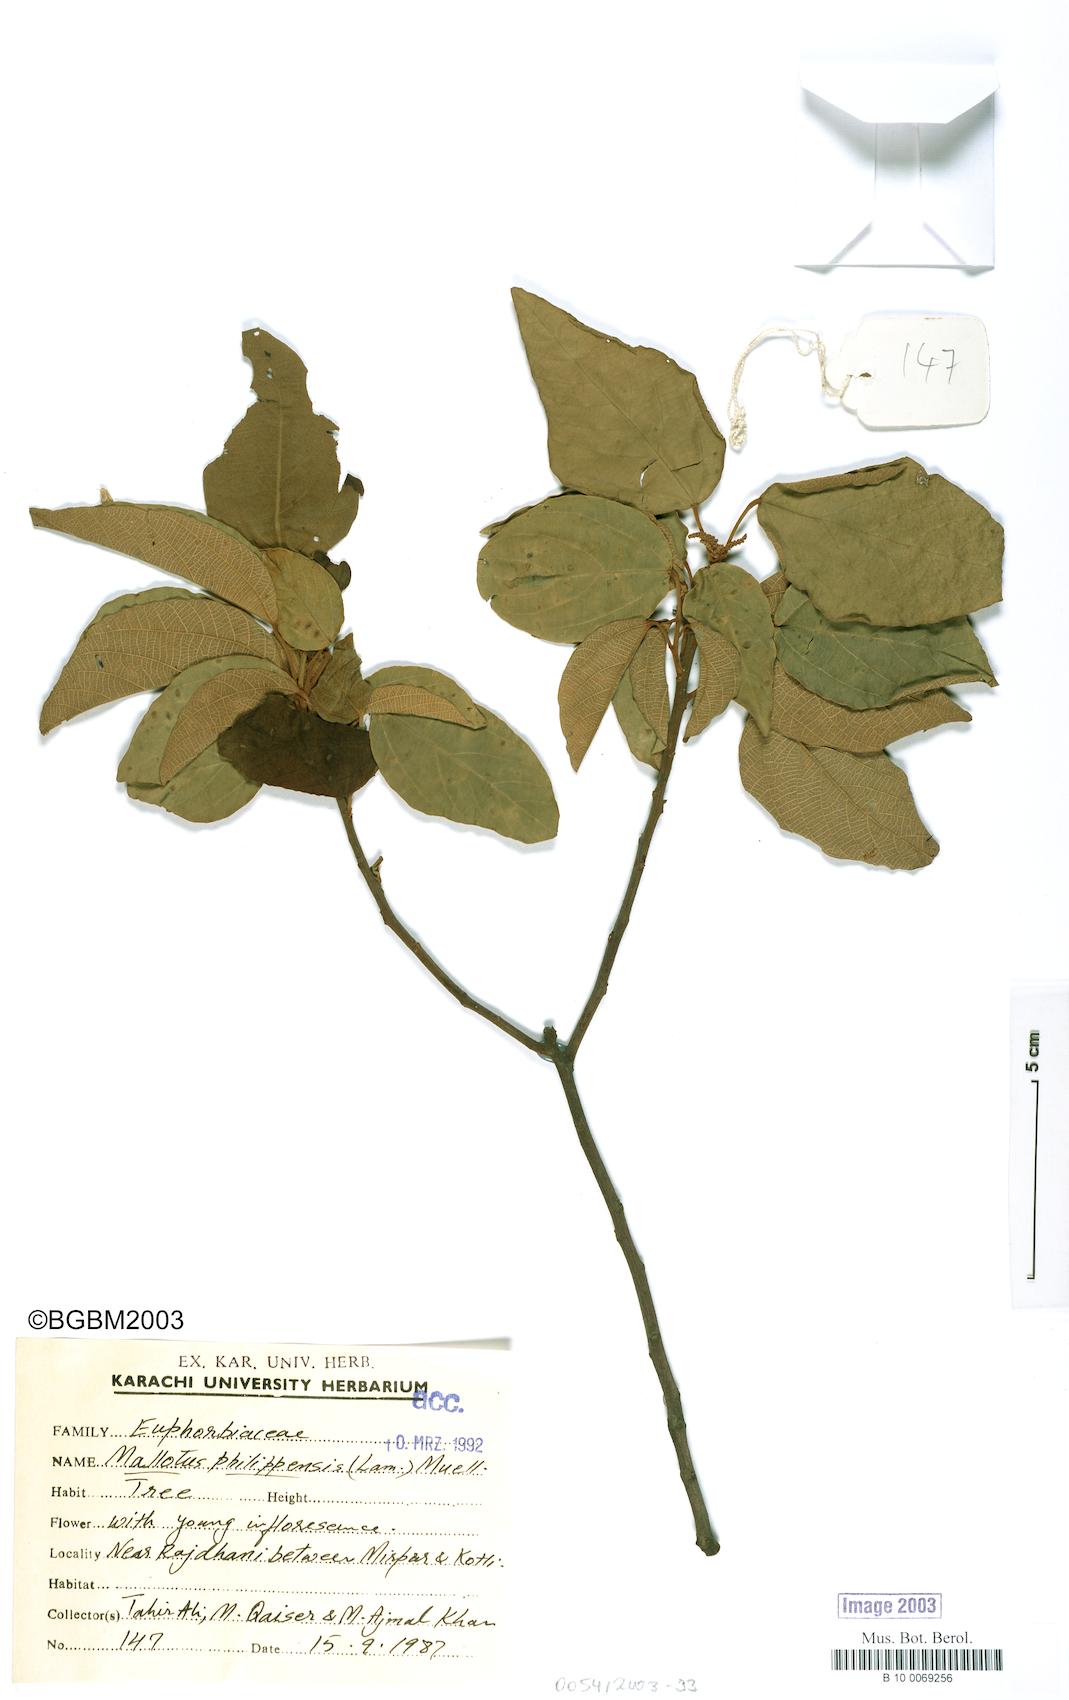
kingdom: Plantae
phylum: Tracheophyta
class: Magnoliopsida
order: Malpighiales
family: Euphorbiaceae
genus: Mallotus
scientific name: Mallotus philippensis
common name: Kamala tree
